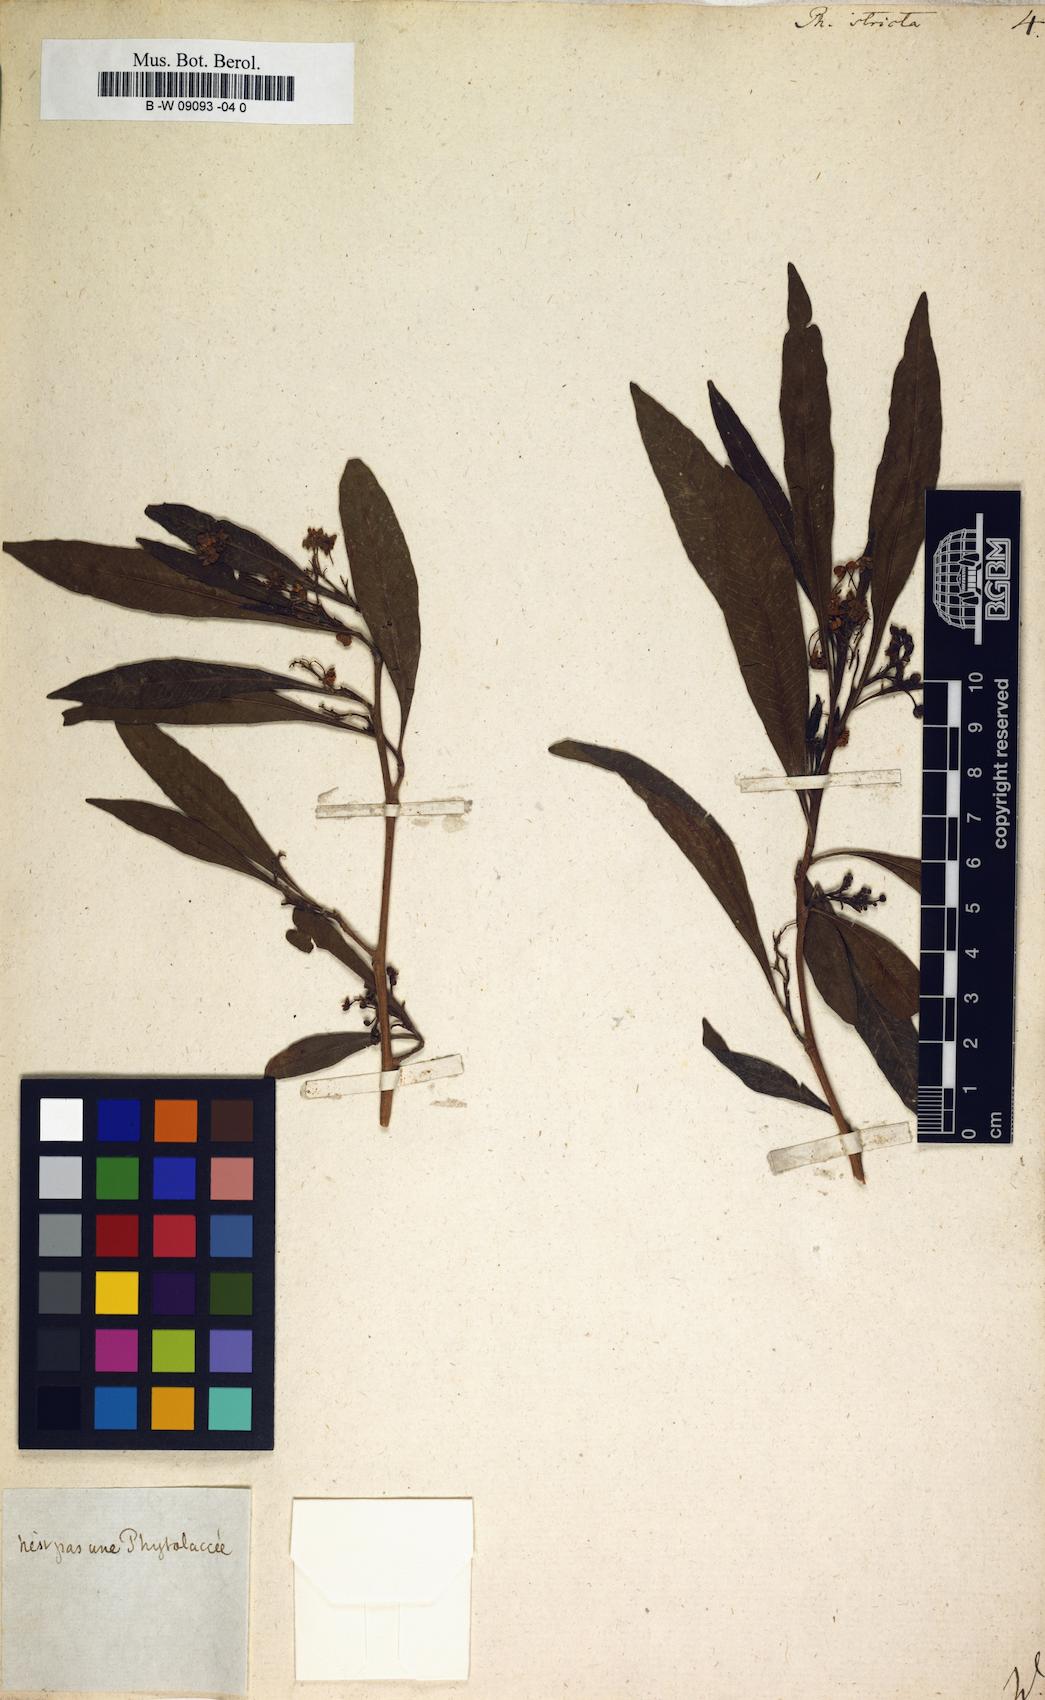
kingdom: Plantae
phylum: Tracheophyta
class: Magnoliopsida
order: Caryophyllales
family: Phytolaccaceae
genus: Phytolacca
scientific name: Phytolacca heptandra
